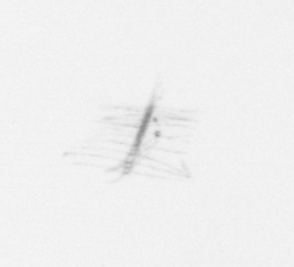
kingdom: Chromista
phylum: Ochrophyta
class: Bacillariophyceae
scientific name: Bacillariophyceae
